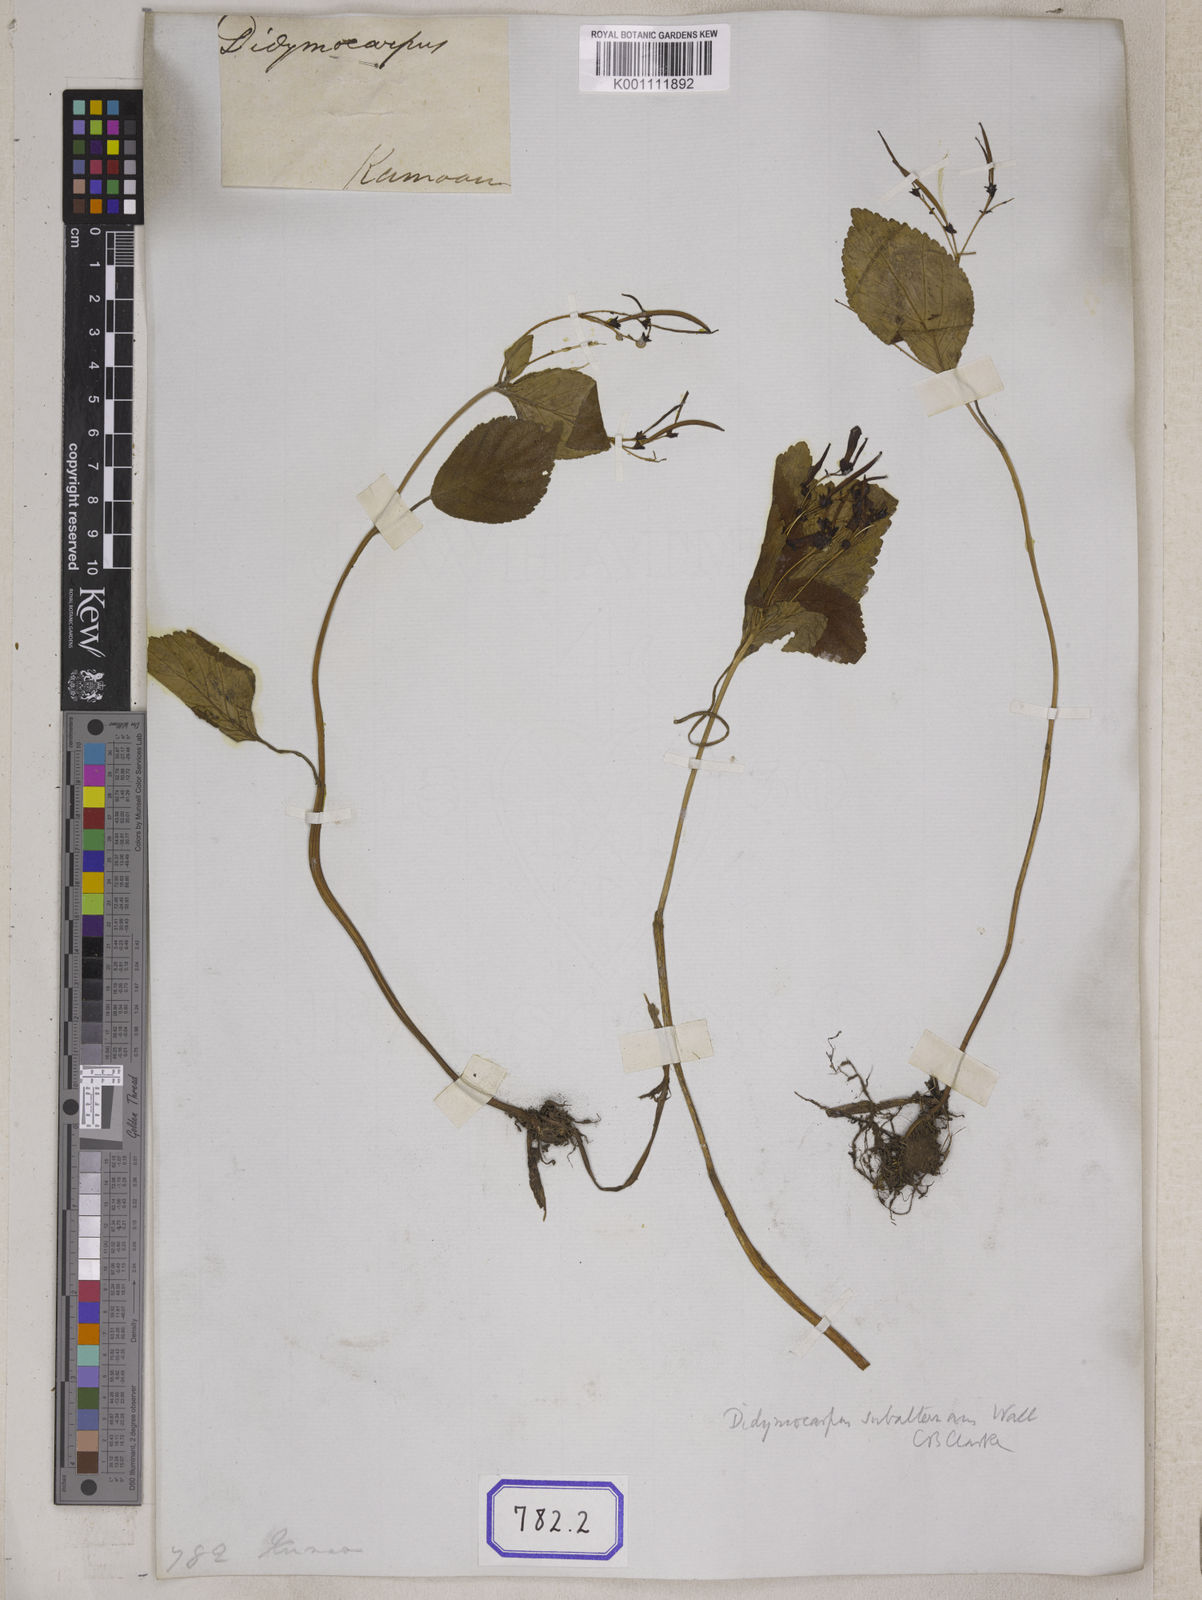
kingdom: Plantae
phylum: Tracheophyta
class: Magnoliopsida
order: Lamiales
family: Gesneriaceae
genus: Didymocarpus
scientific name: Didymocarpus
